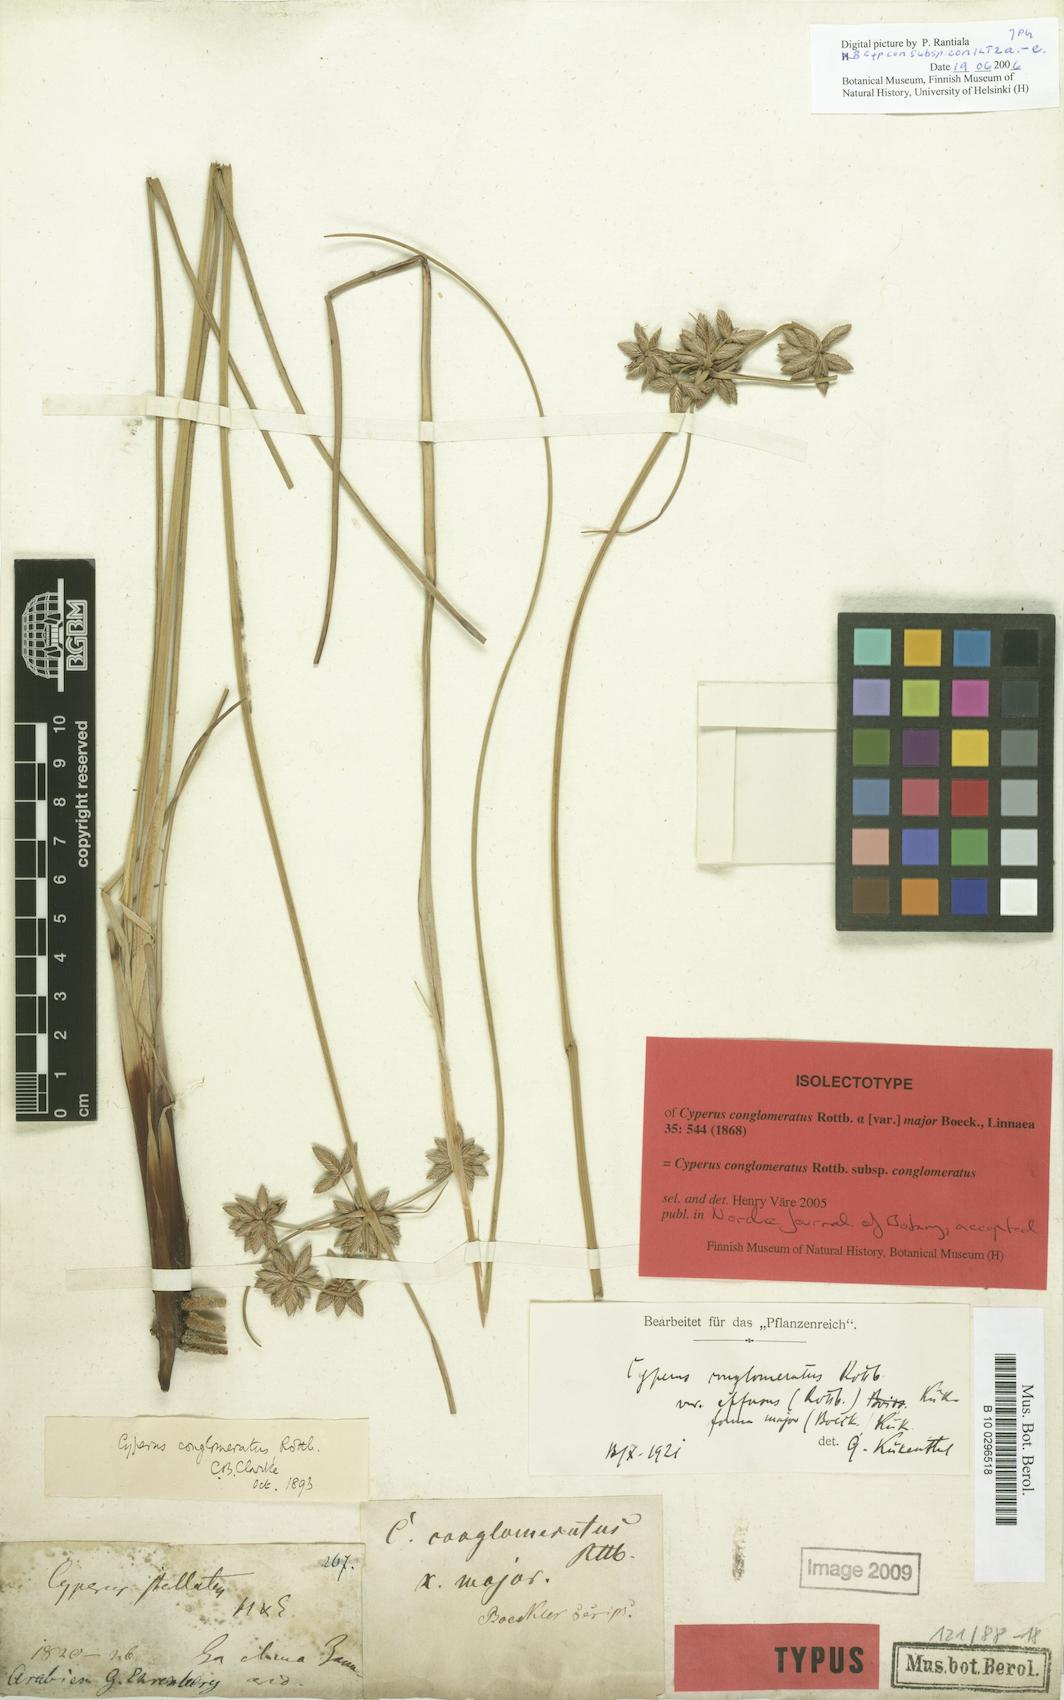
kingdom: Plantae
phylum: Tracheophyta
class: Liliopsida
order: Poales
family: Cyperaceae
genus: Cyperus
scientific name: Cyperus conglomeratus
